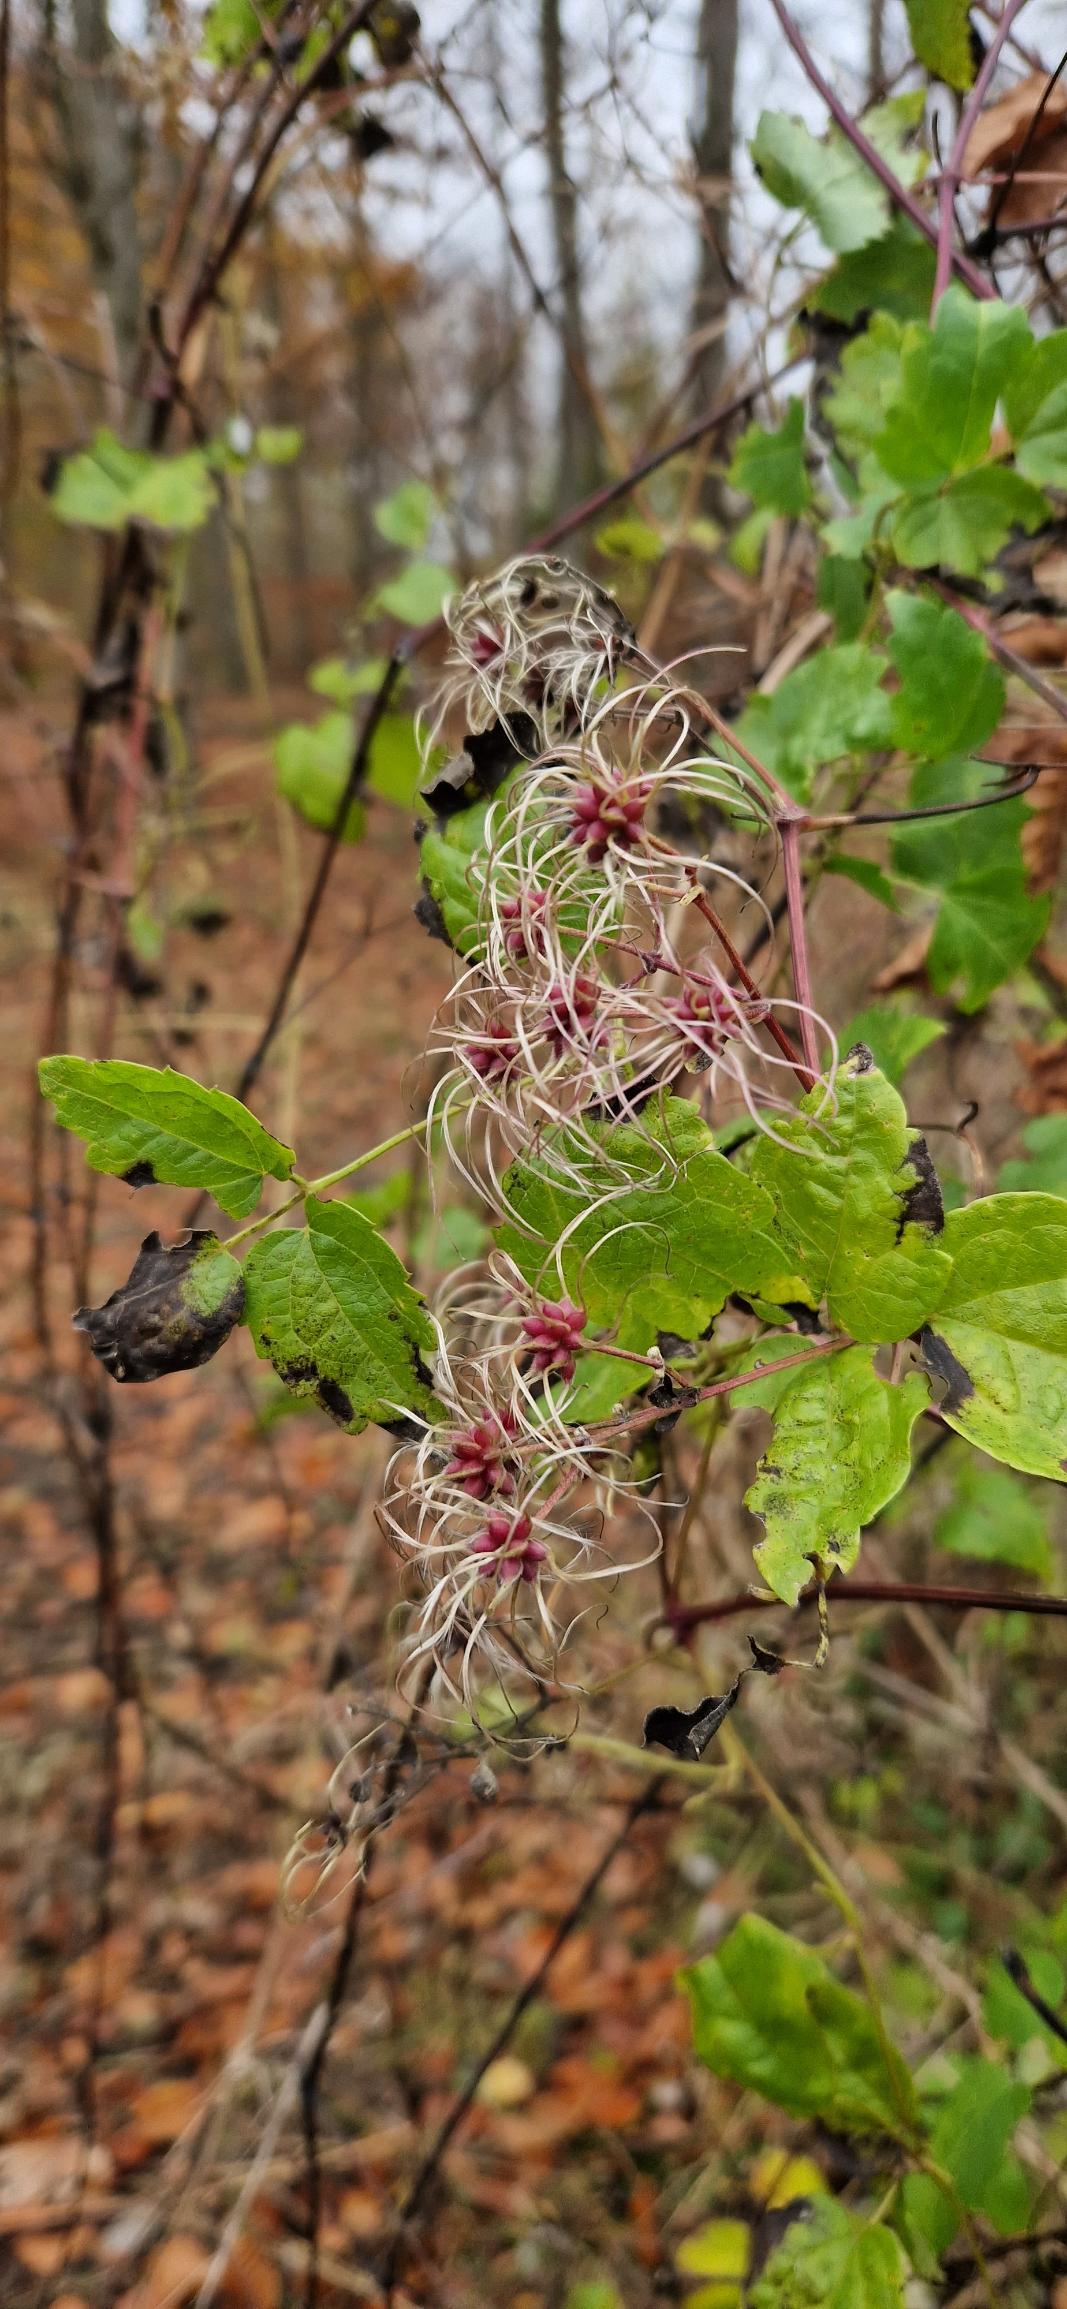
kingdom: Plantae
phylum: Tracheophyta
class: Magnoliopsida
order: Ranunculales
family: Ranunculaceae
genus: Clematis
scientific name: Clematis vitalba
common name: Skovranke
